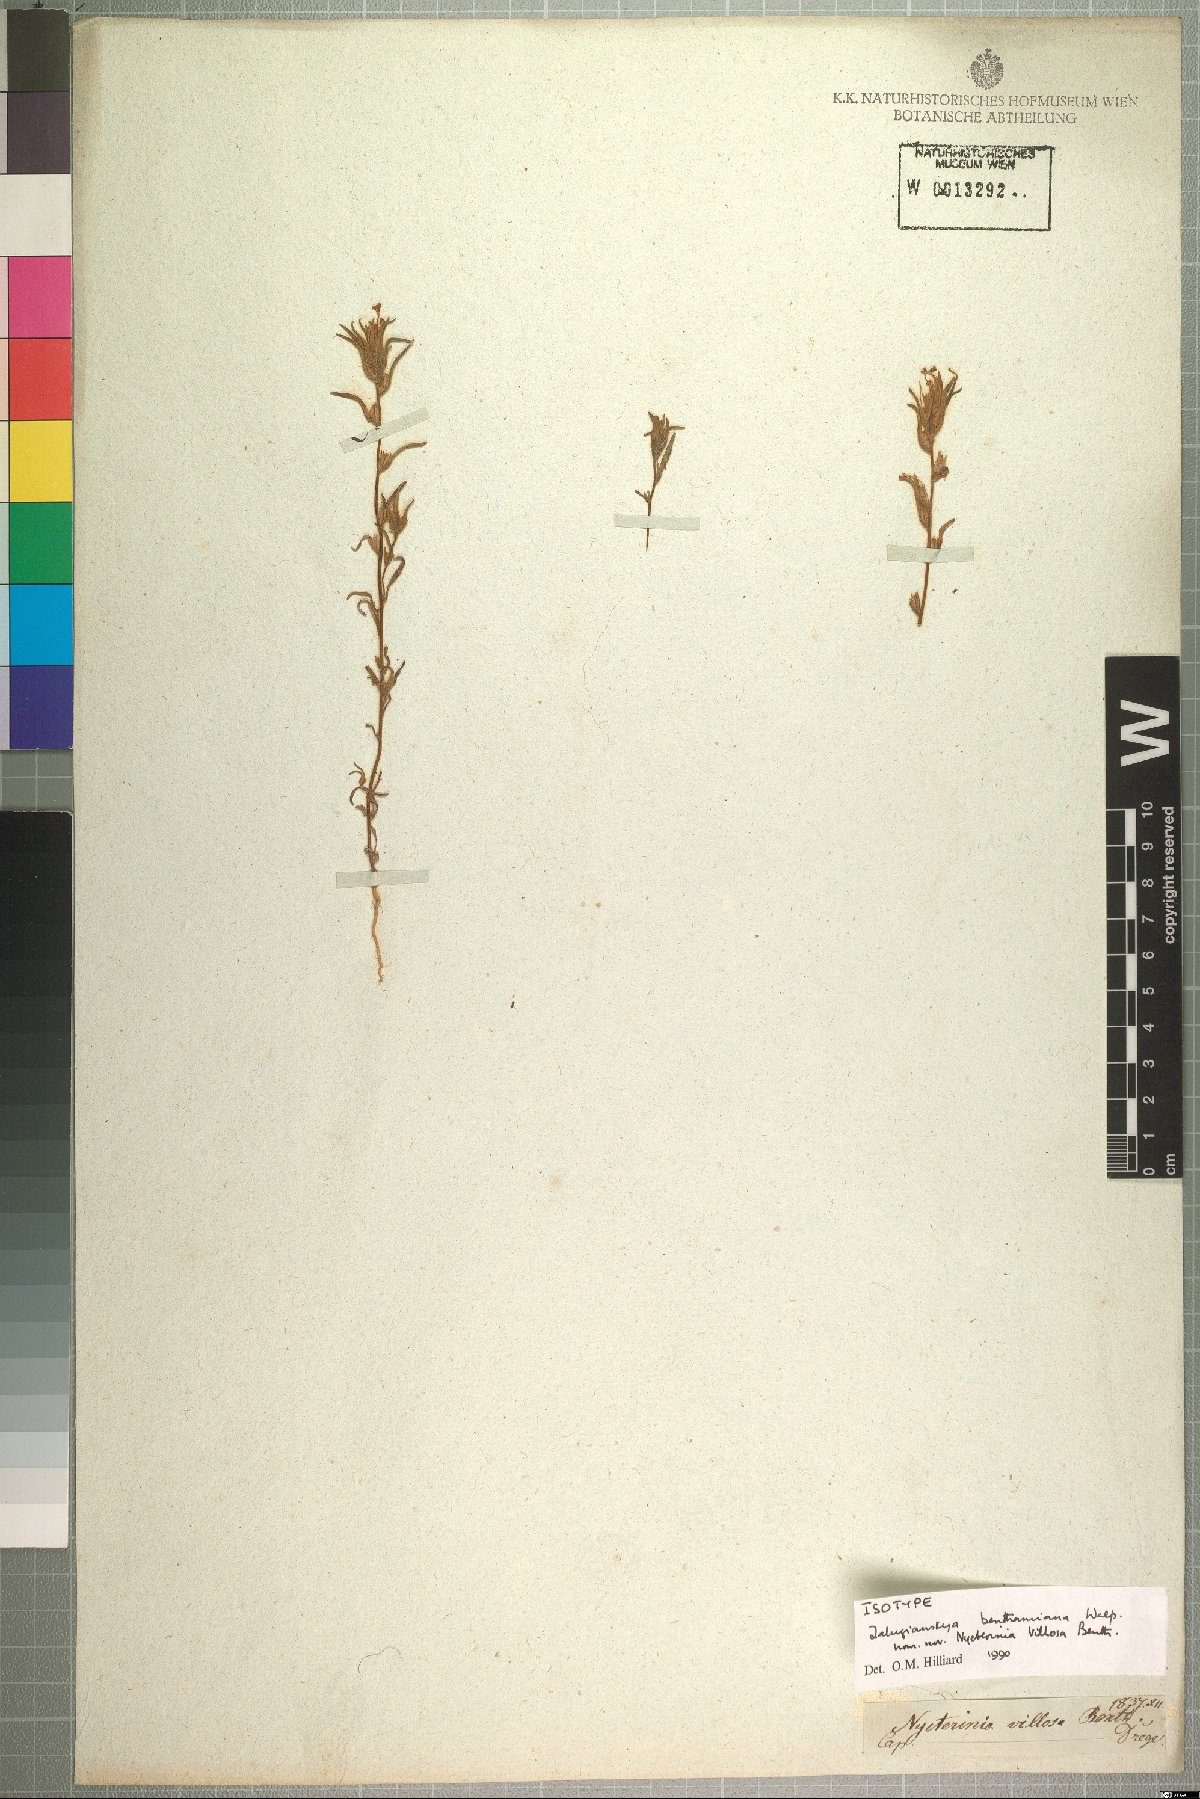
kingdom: Plantae
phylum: Tracheophyta
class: Magnoliopsida
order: Lamiales
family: Scrophulariaceae
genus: Zaluzianskya
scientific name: Zaluzianskya benthamiana
